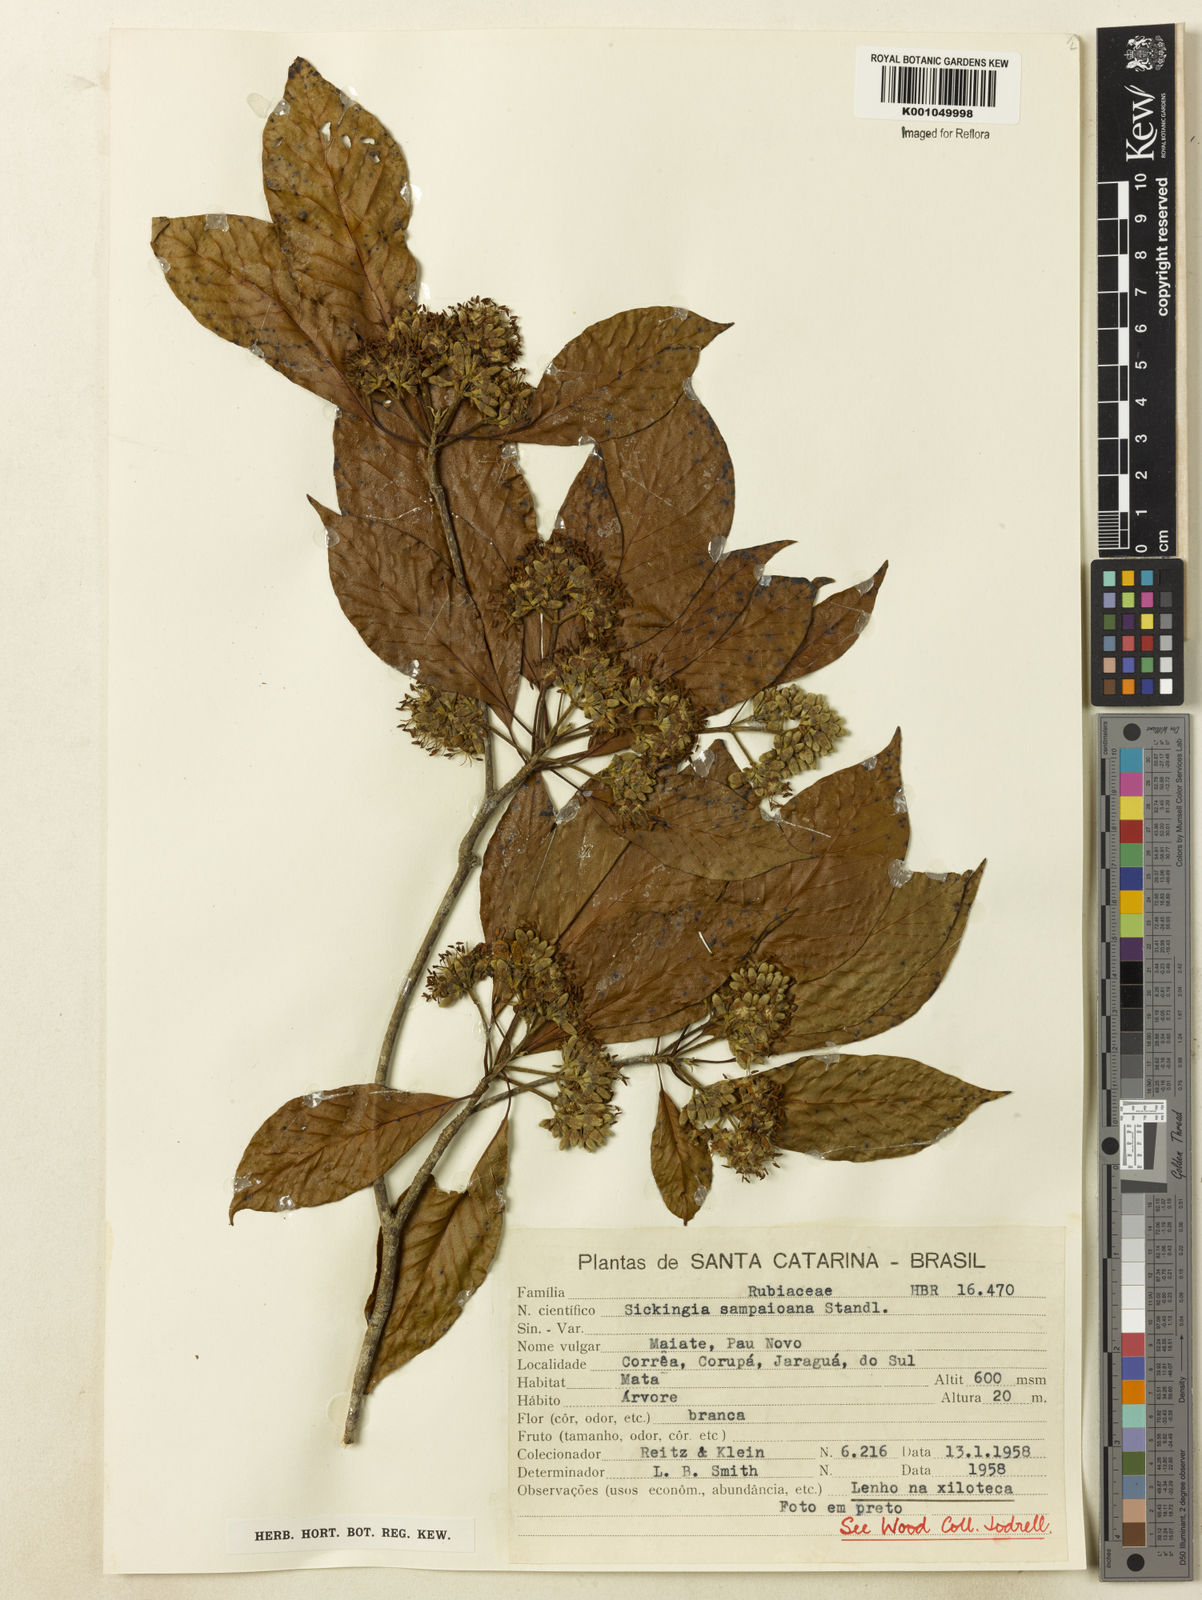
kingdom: Plantae
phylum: Tracheophyta
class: Magnoliopsida
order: Gentianales
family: Rubiaceae
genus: Simira
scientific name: Simira sampaioana
